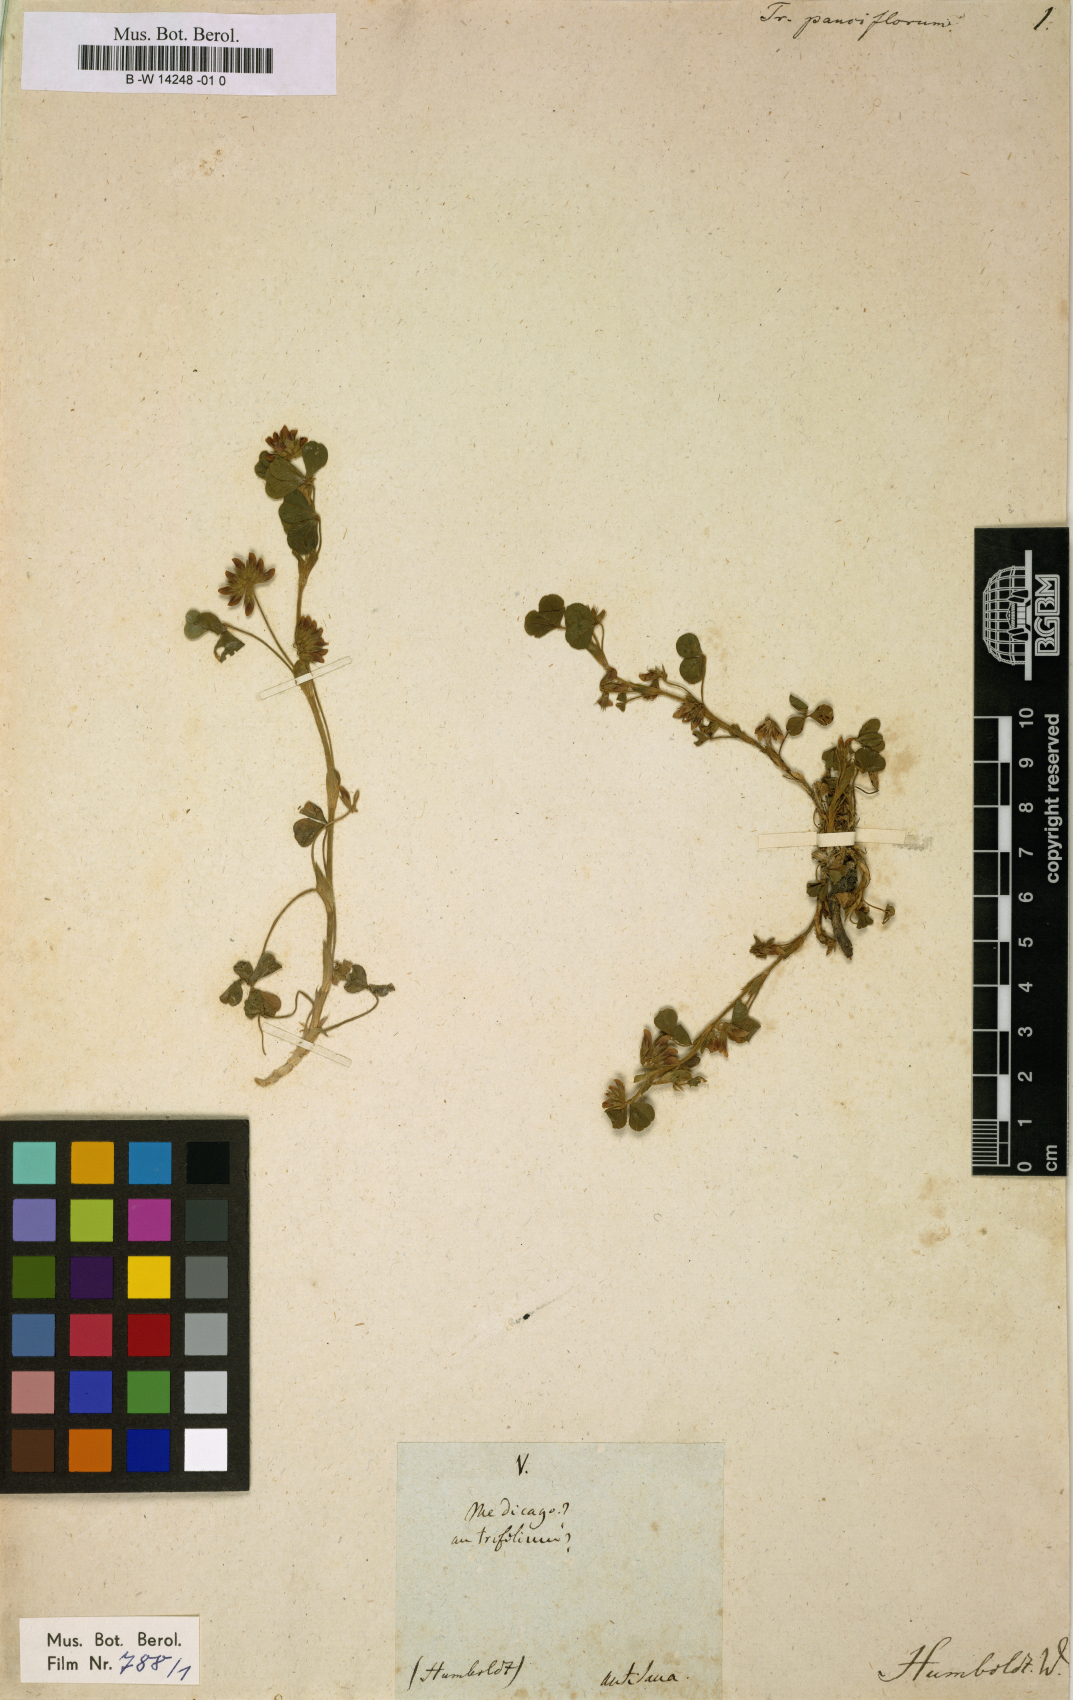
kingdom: Plantae
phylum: Tracheophyta
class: Magnoliopsida
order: Fabales
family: Fabaceae
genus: Trifolium
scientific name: Trifolium pauciflorum
